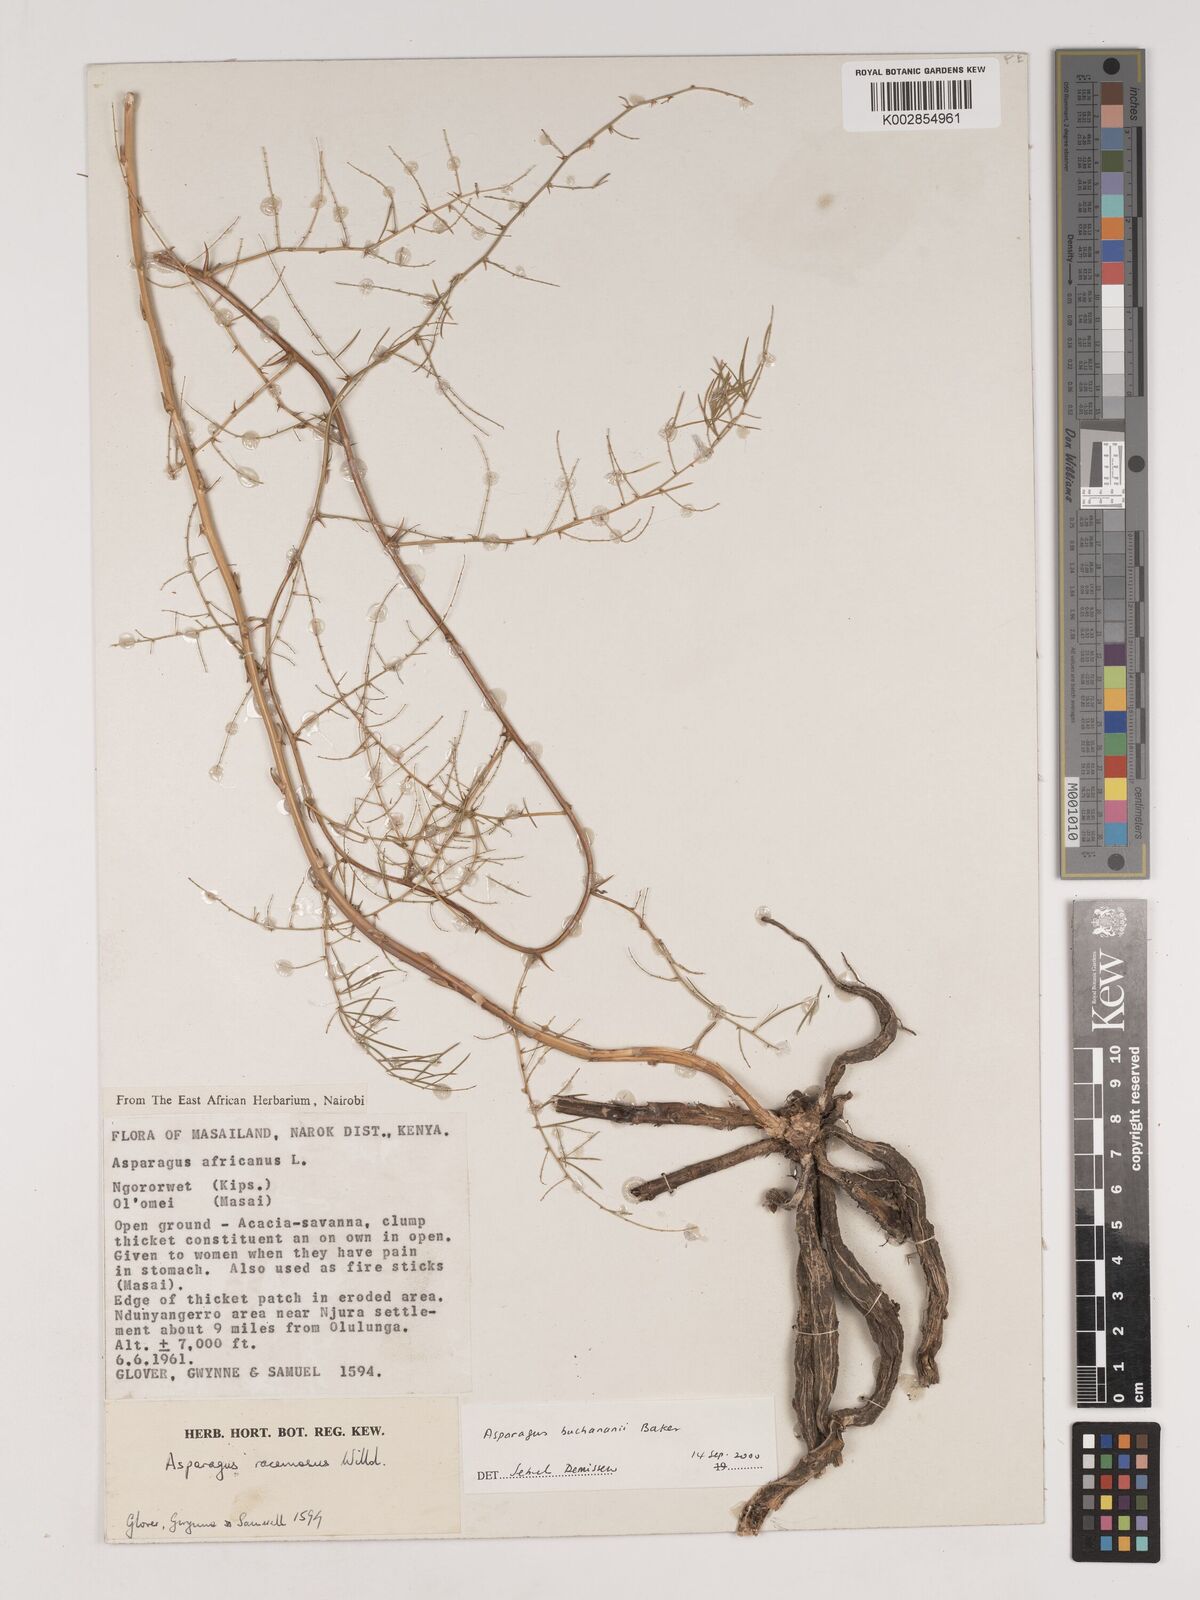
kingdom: Plantae
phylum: Tracheophyta
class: Liliopsida
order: Asparagales
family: Asparagaceae
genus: Asparagus
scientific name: Asparagus buchananii
